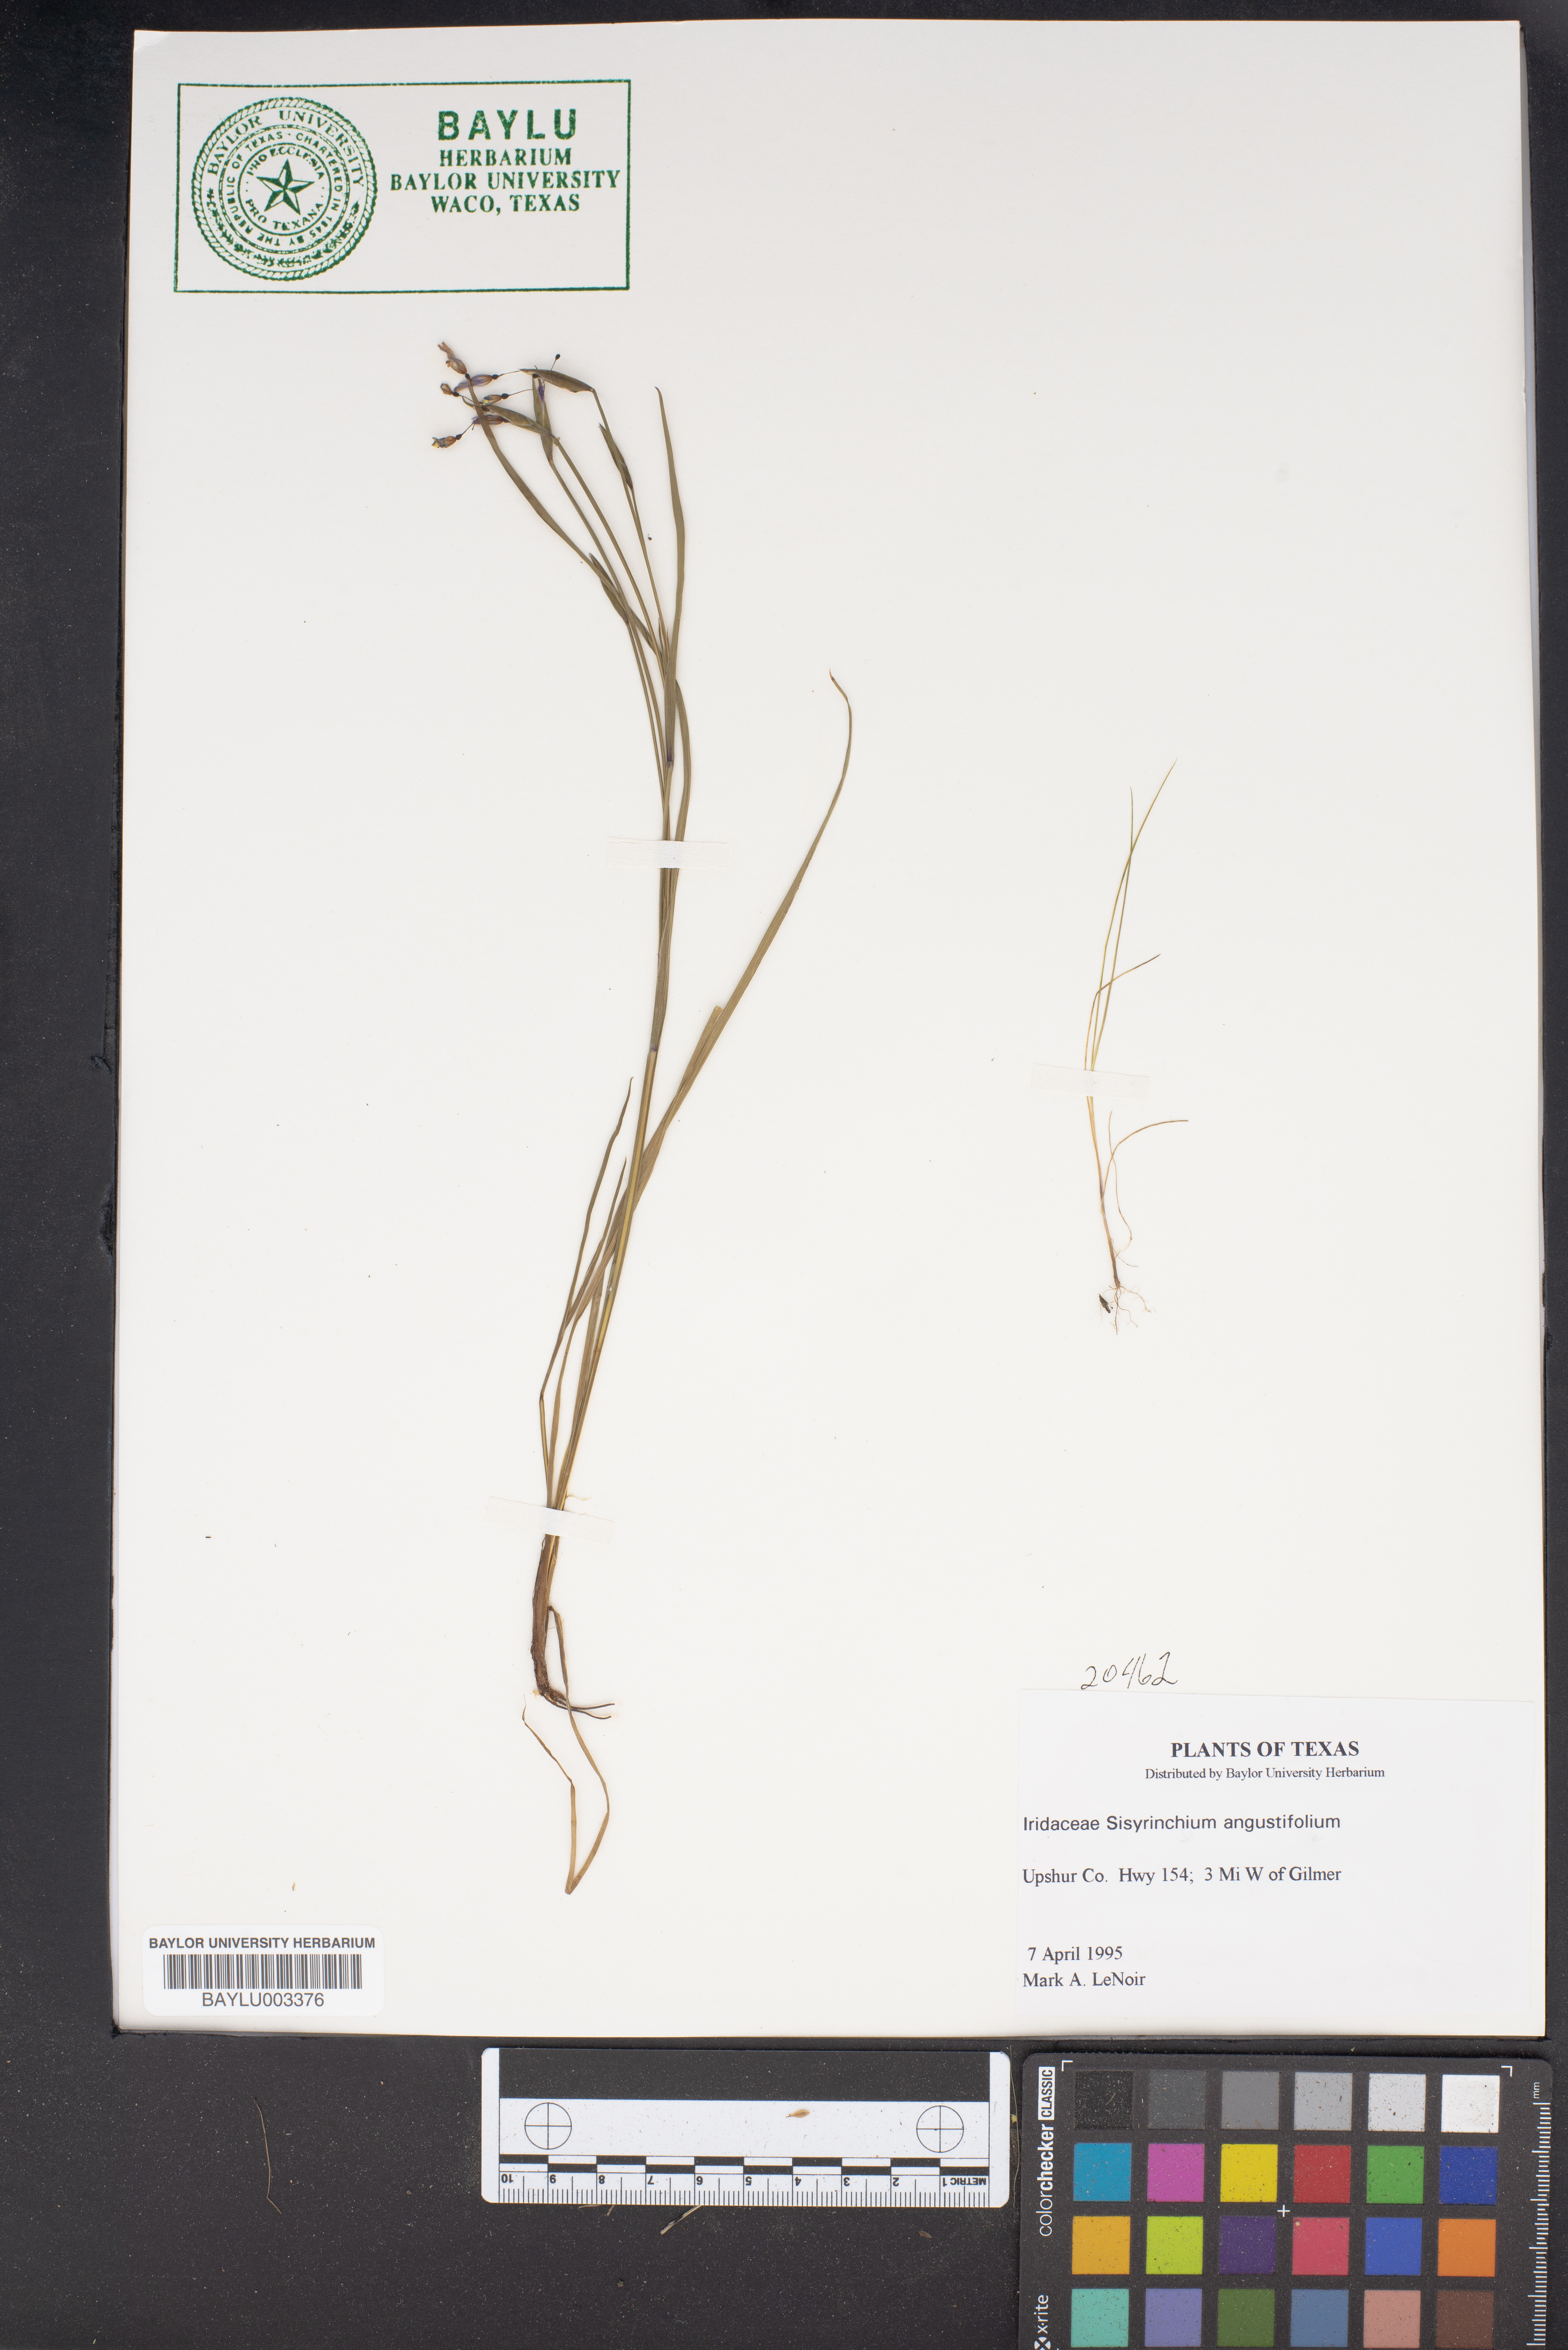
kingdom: Plantae
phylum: Tracheophyta
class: Liliopsida
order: Asparagales
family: Iridaceae
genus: Sisyrinchium
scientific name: Sisyrinchium angustifolium
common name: Narrow-leaf blue-eyed-grass
